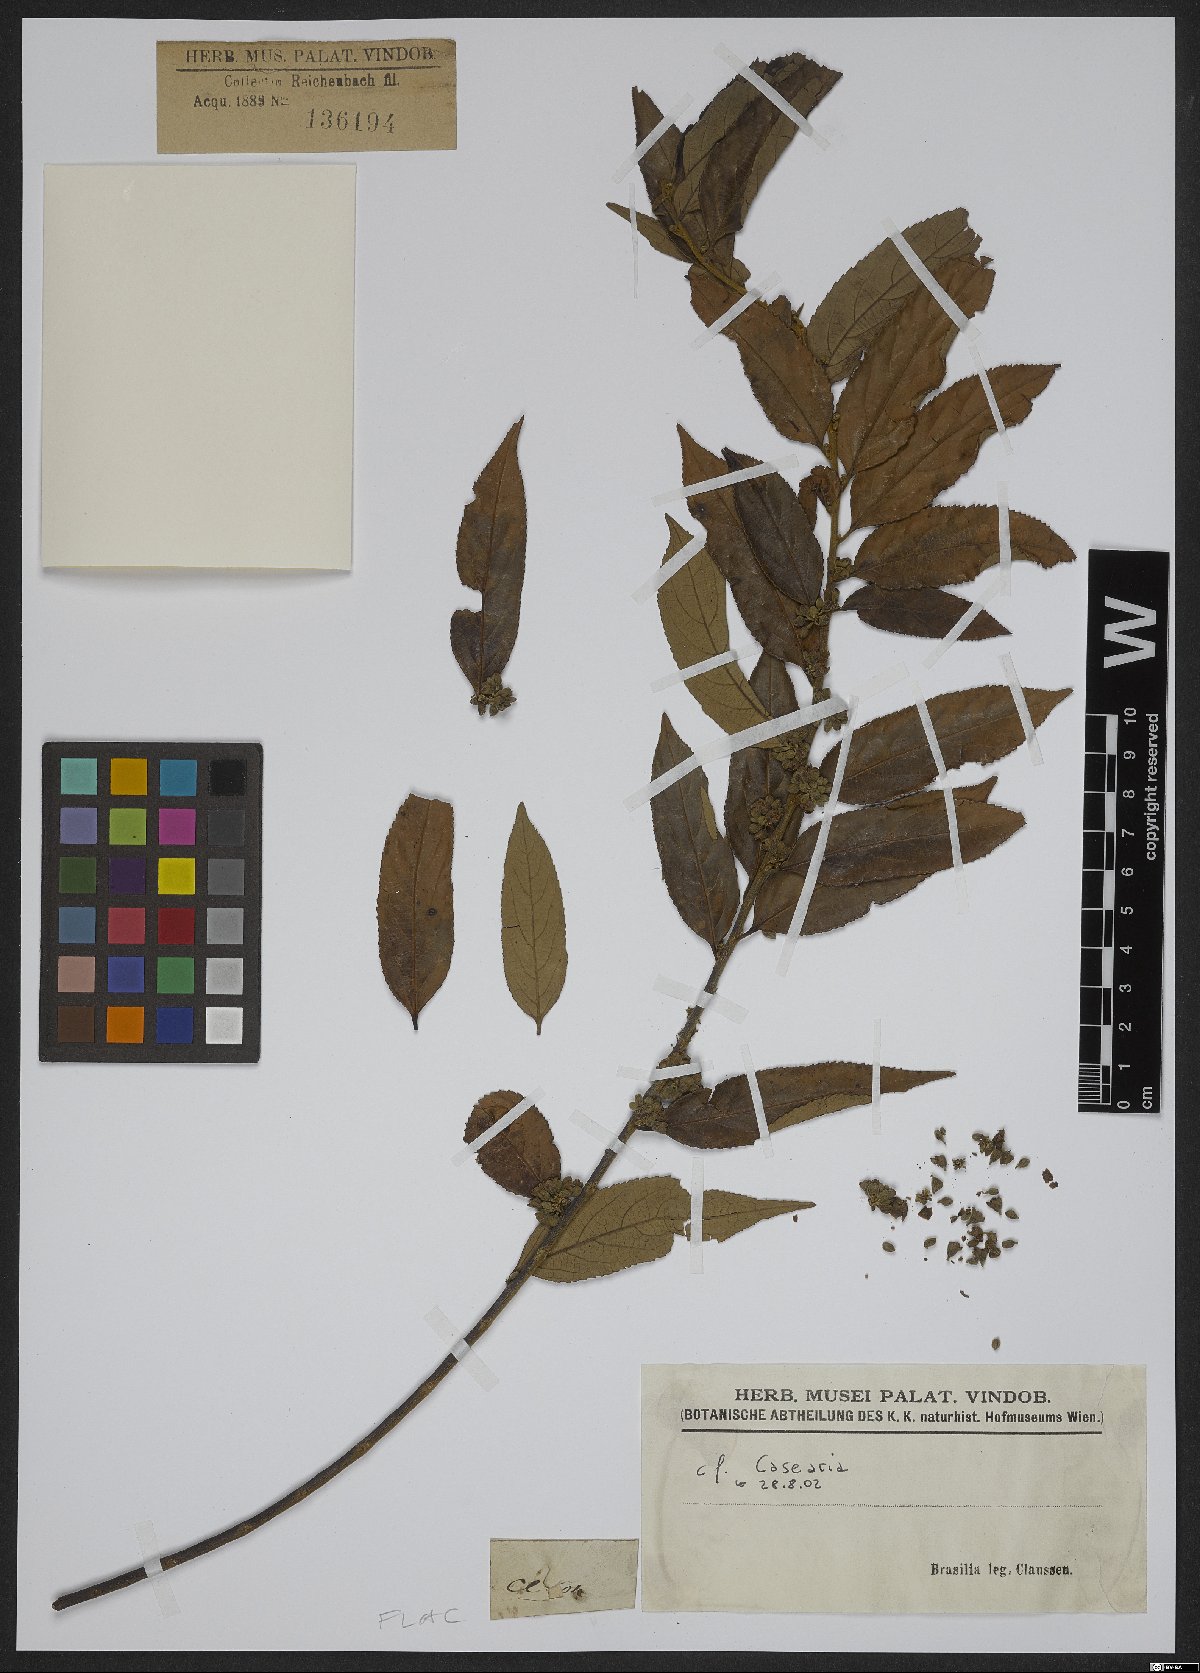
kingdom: Plantae
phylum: Tracheophyta
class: Magnoliopsida
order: Malpighiales
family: Salicaceae
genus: Casearia
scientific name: Casearia
